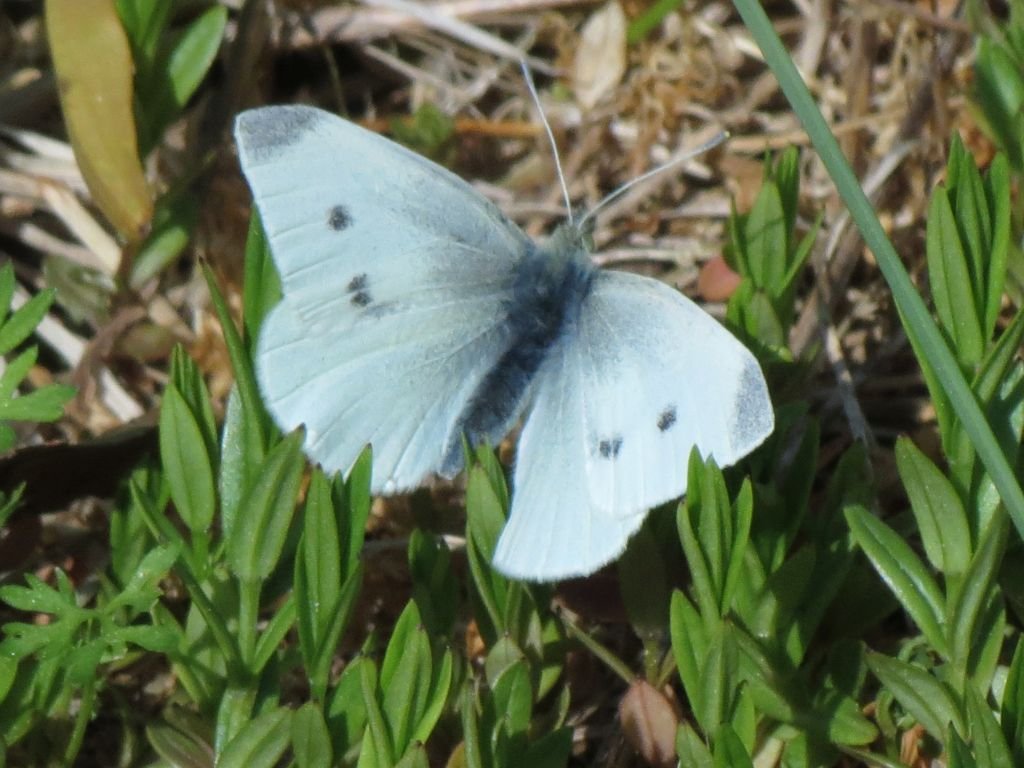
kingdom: Animalia
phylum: Arthropoda
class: Insecta
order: Lepidoptera
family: Pieridae
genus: Pieris
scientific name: Pieris rapae
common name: Cabbage White
